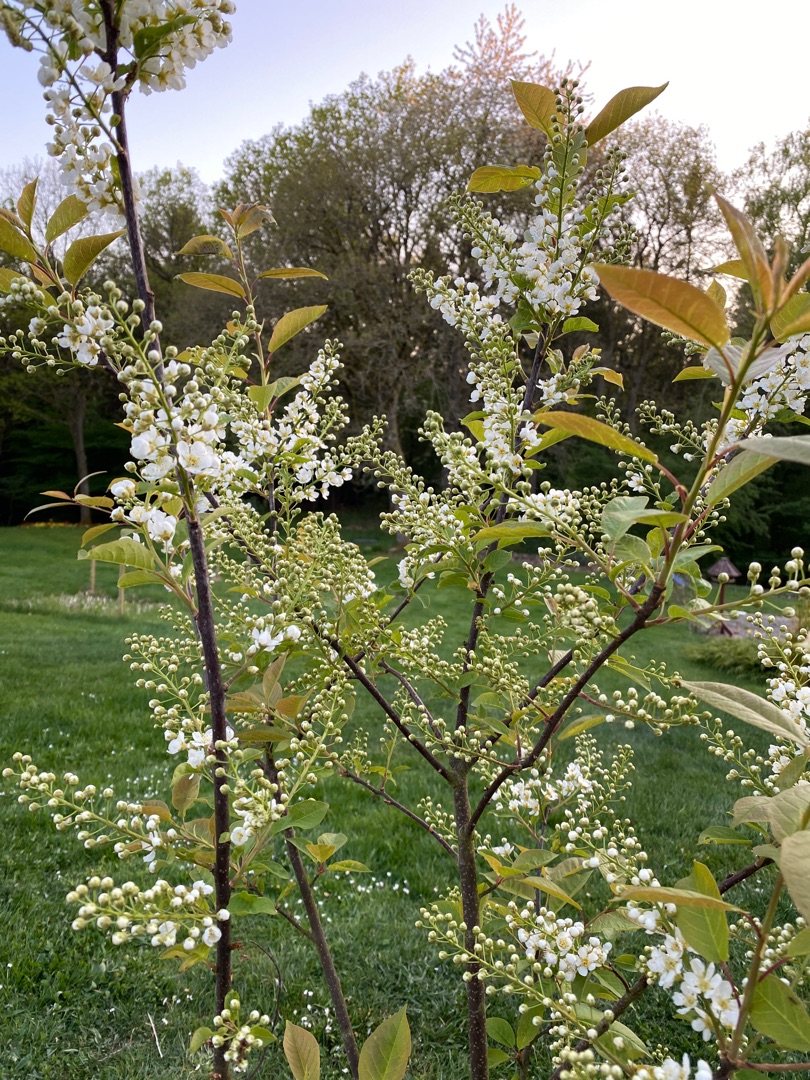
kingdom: Plantae
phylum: Tracheophyta
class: Magnoliopsida
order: Rosales
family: Rosaceae
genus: Prunus
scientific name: Prunus padus
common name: Almindelig hæg
